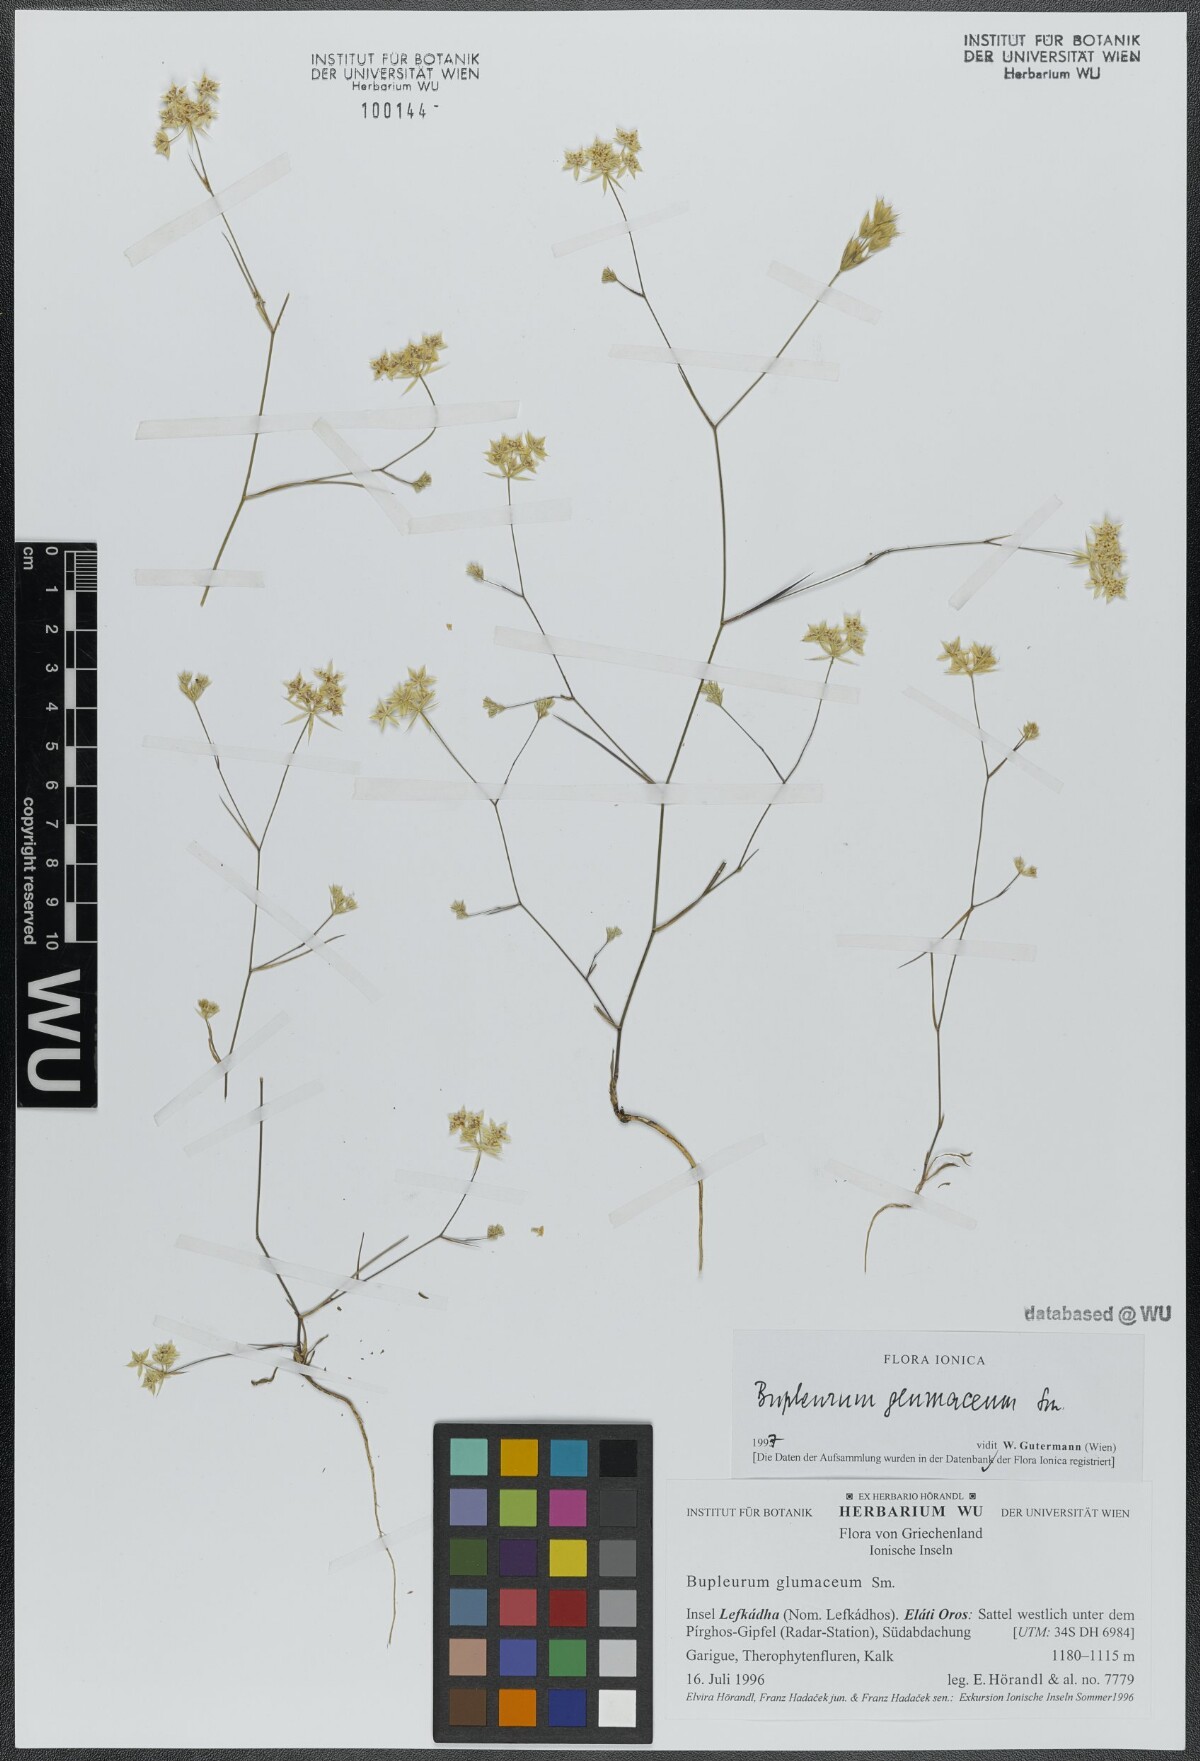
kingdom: Plantae
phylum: Tracheophyta
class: Magnoliopsida
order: Apiales
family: Apiaceae
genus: Bupleurum
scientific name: Bupleurum glumaceum
